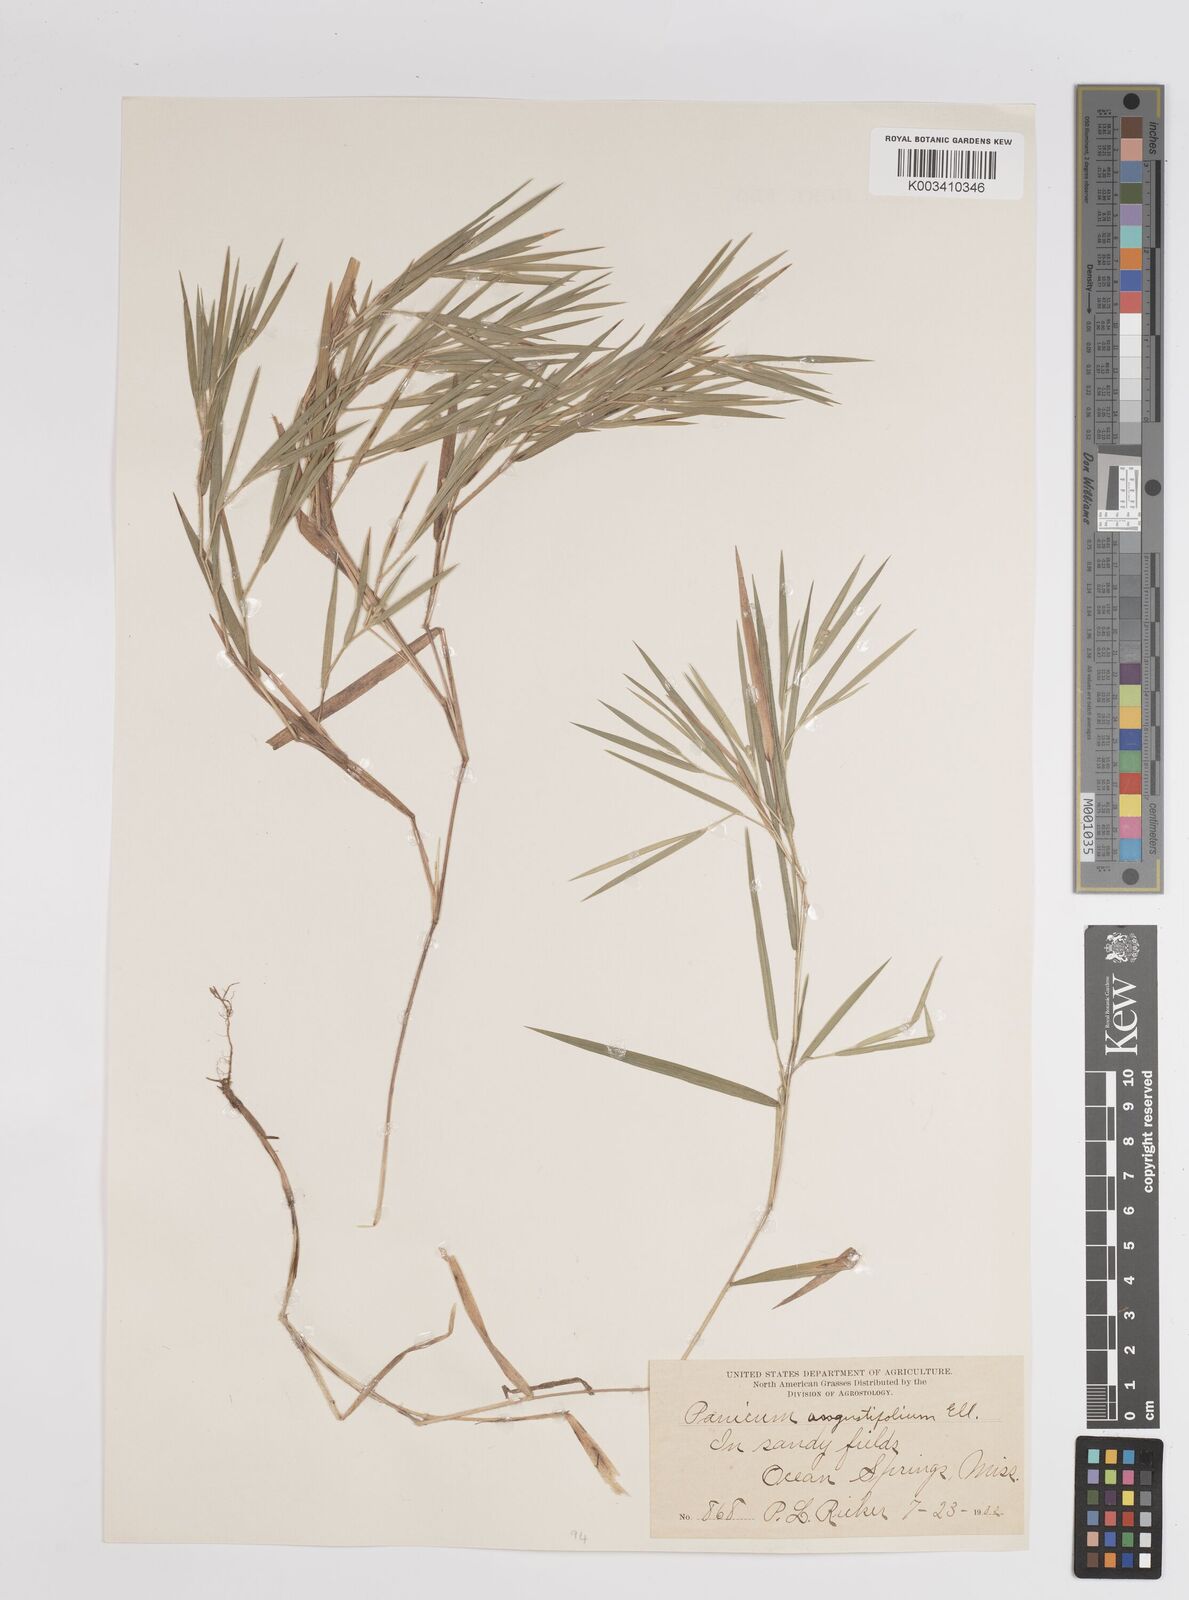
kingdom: Plantae
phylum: Tracheophyta
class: Liliopsida
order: Poales
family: Poaceae
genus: Dichanthelium
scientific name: Dichanthelium angustifolium
